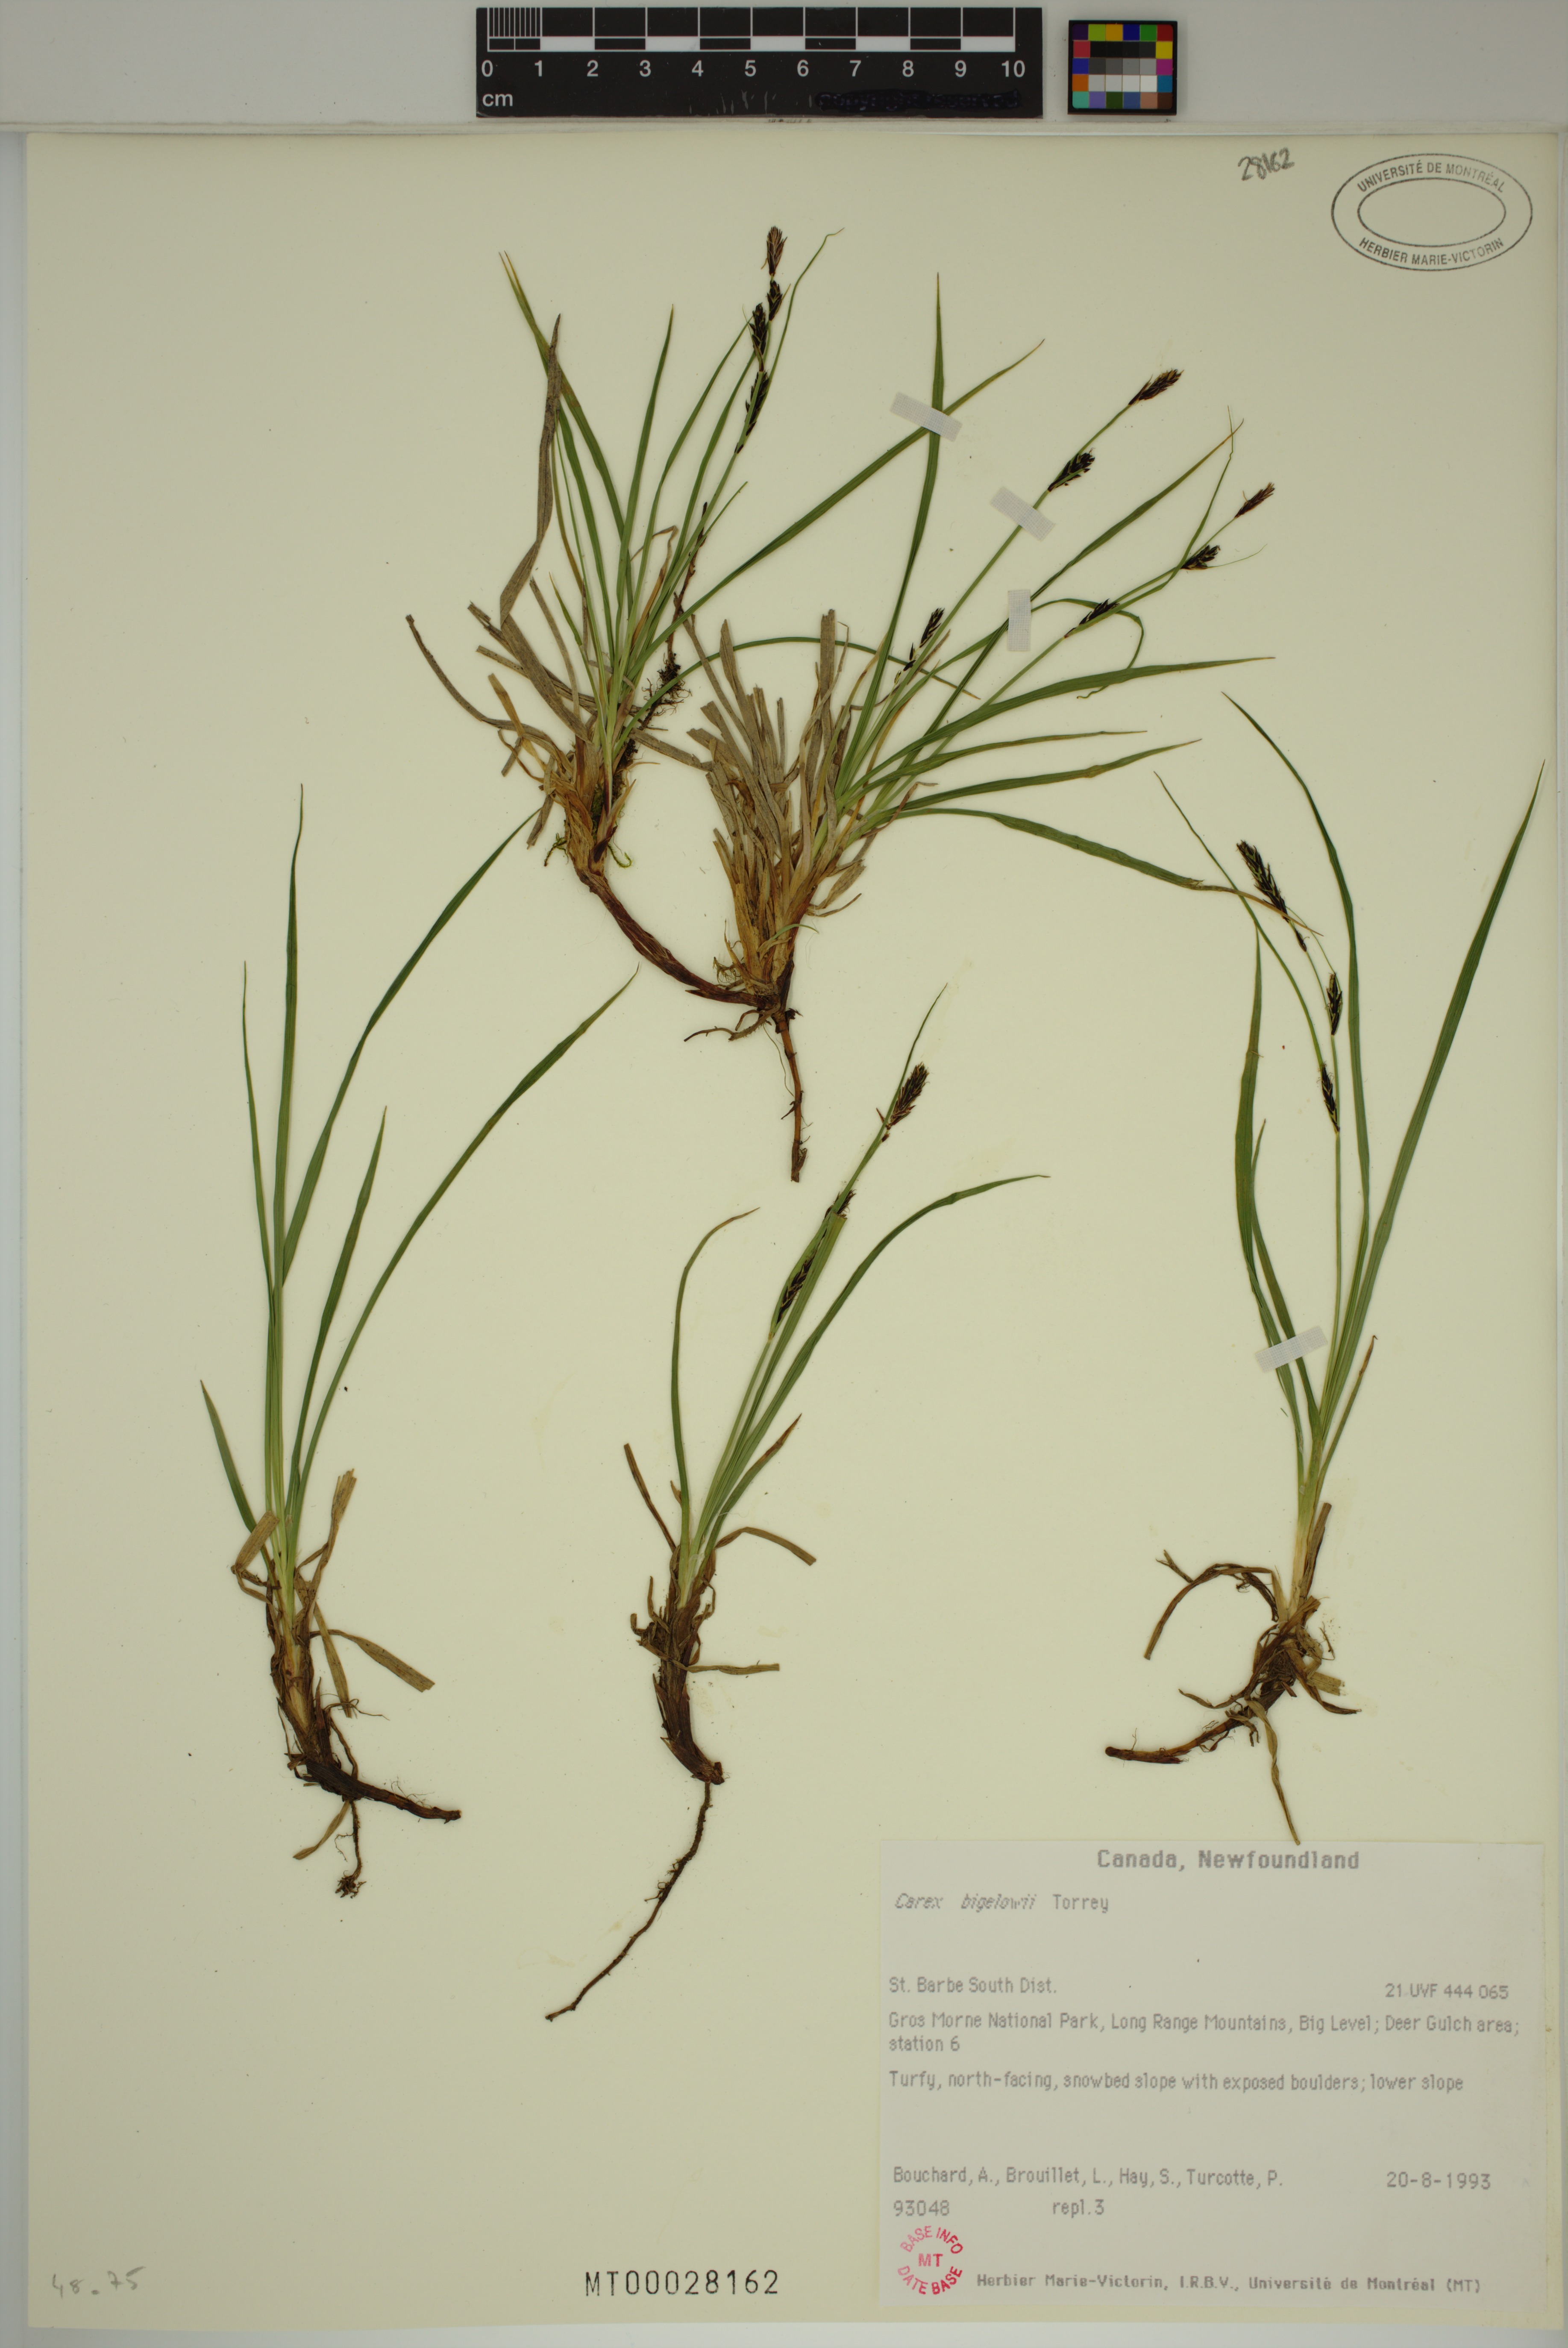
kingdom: Plantae
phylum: Tracheophyta
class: Liliopsida
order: Poales
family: Cyperaceae
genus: Carex
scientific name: Carex bigelowii
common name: Stiff sedge
